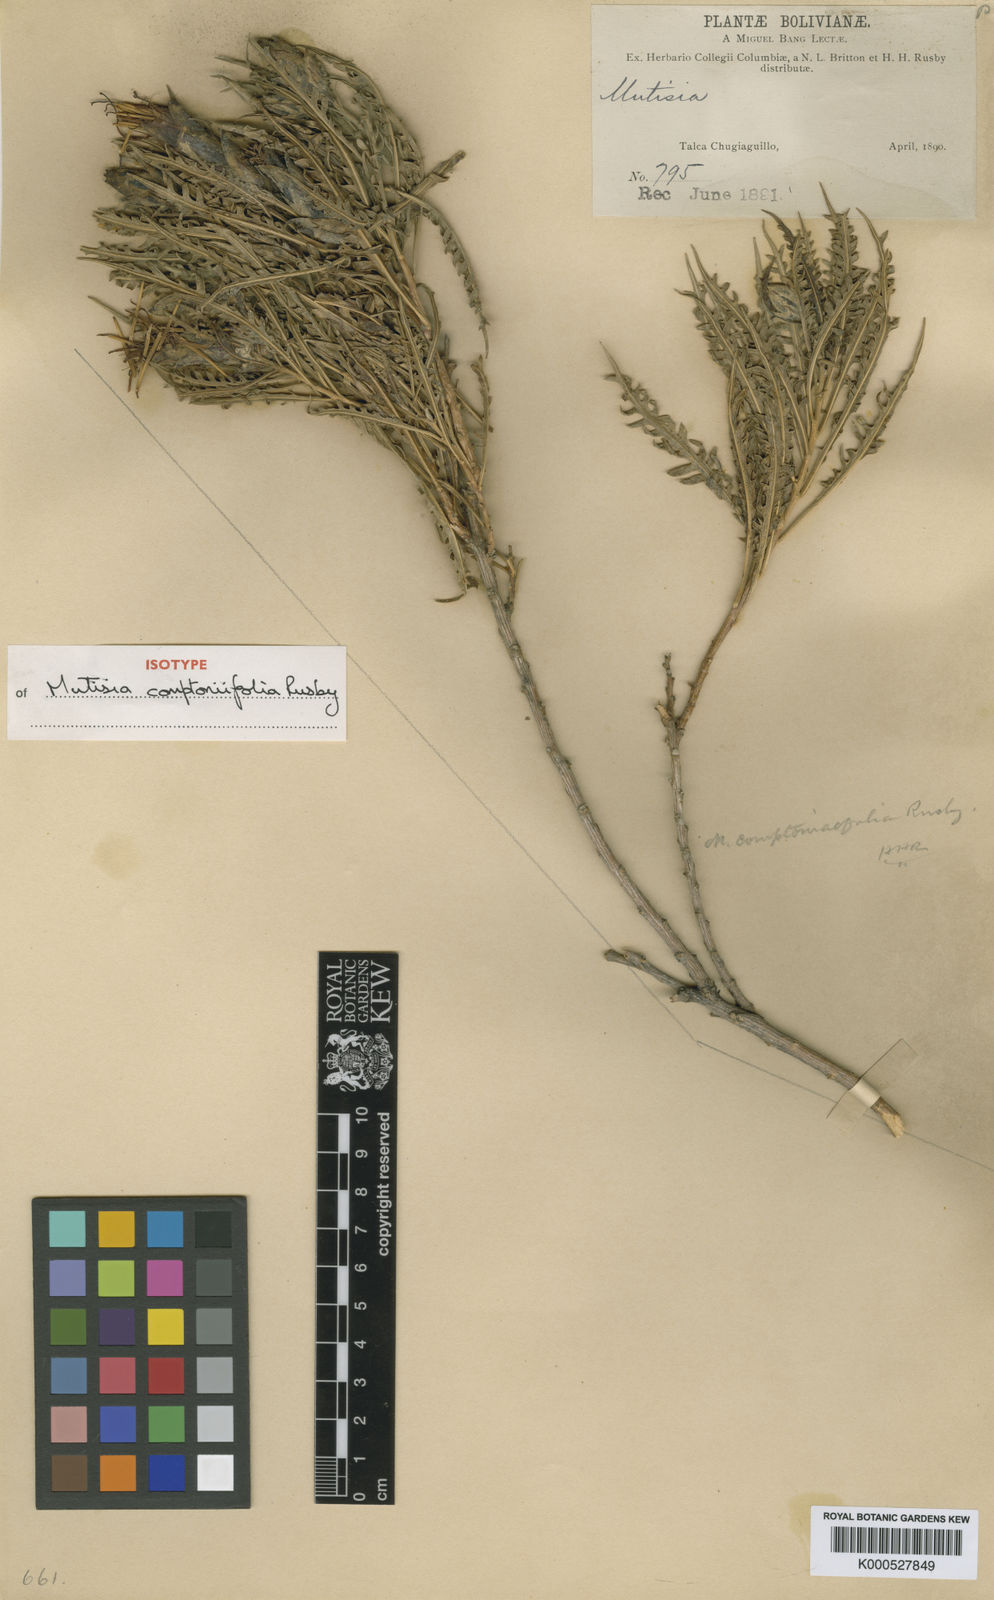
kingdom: Plantae
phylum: Tracheophyta
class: Magnoliopsida
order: Asterales
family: Asteraceae
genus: Mutisia
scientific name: Mutisia
